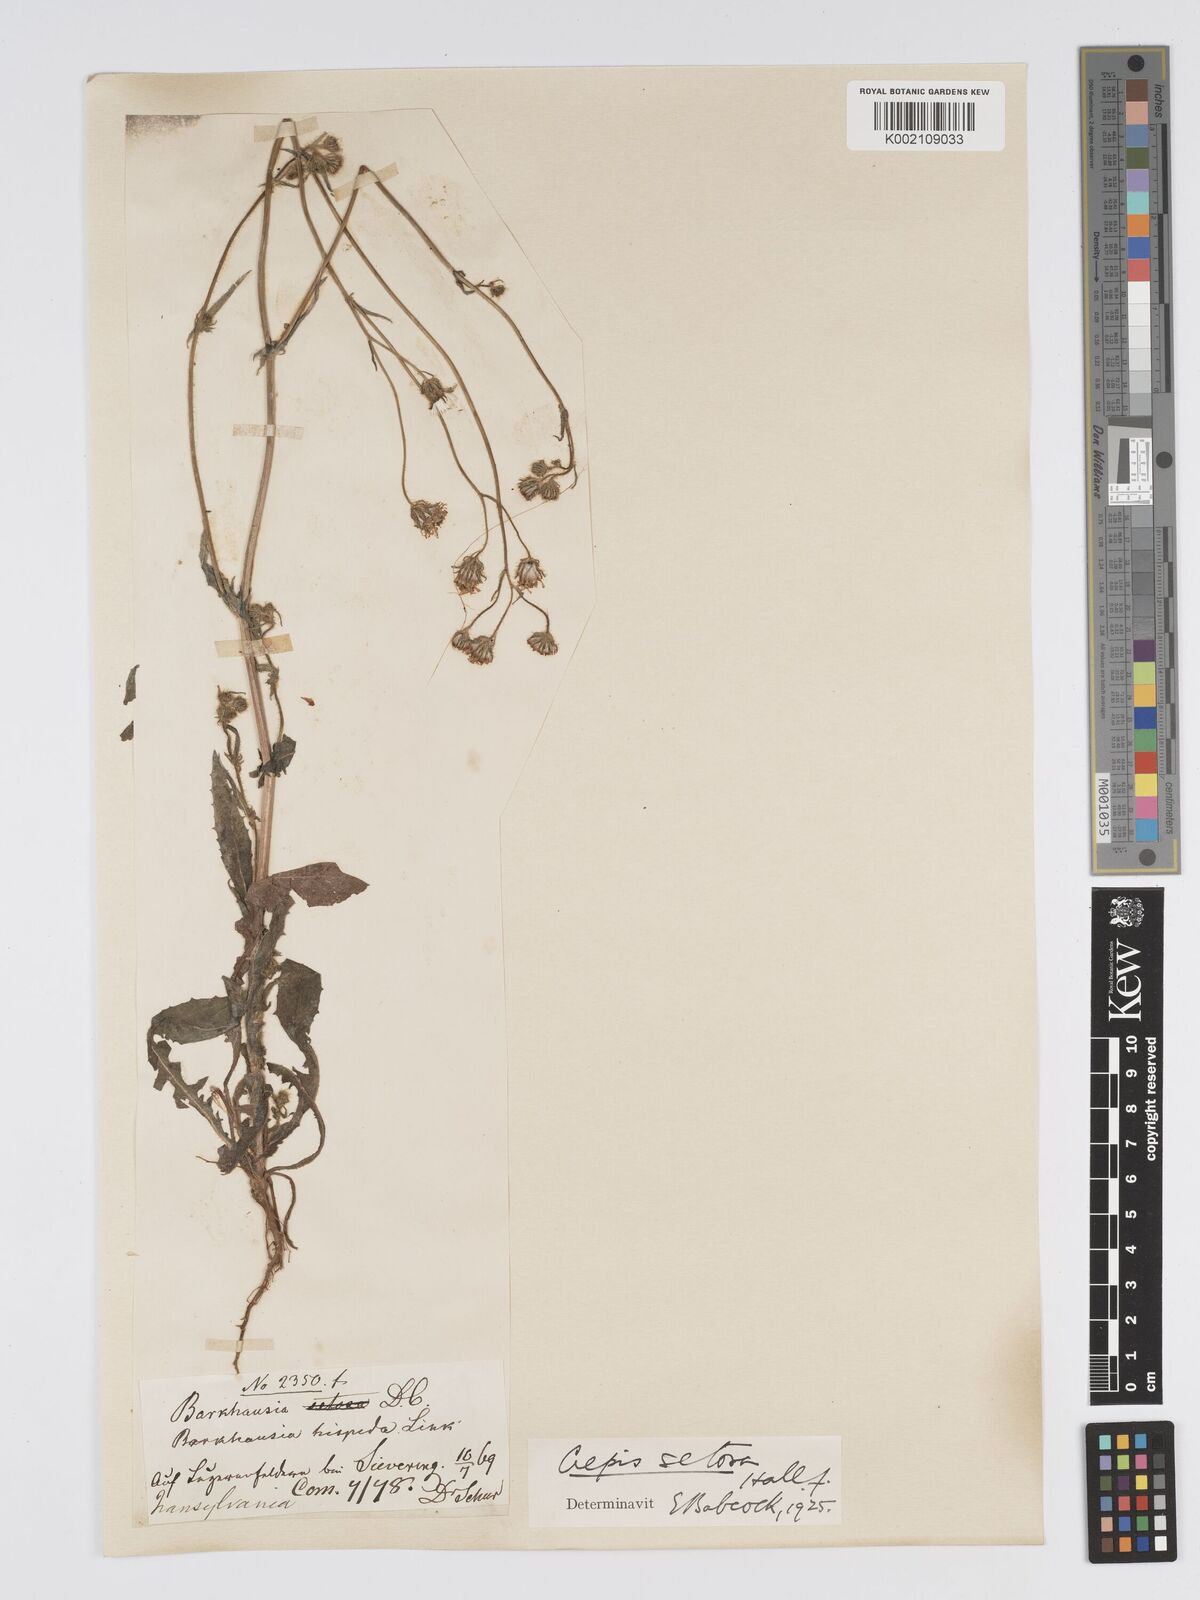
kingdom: Plantae
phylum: Tracheophyta
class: Magnoliopsida
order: Asterales
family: Asteraceae
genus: Crepis
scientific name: Crepis setosa
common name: Bristly hawk's-beard
